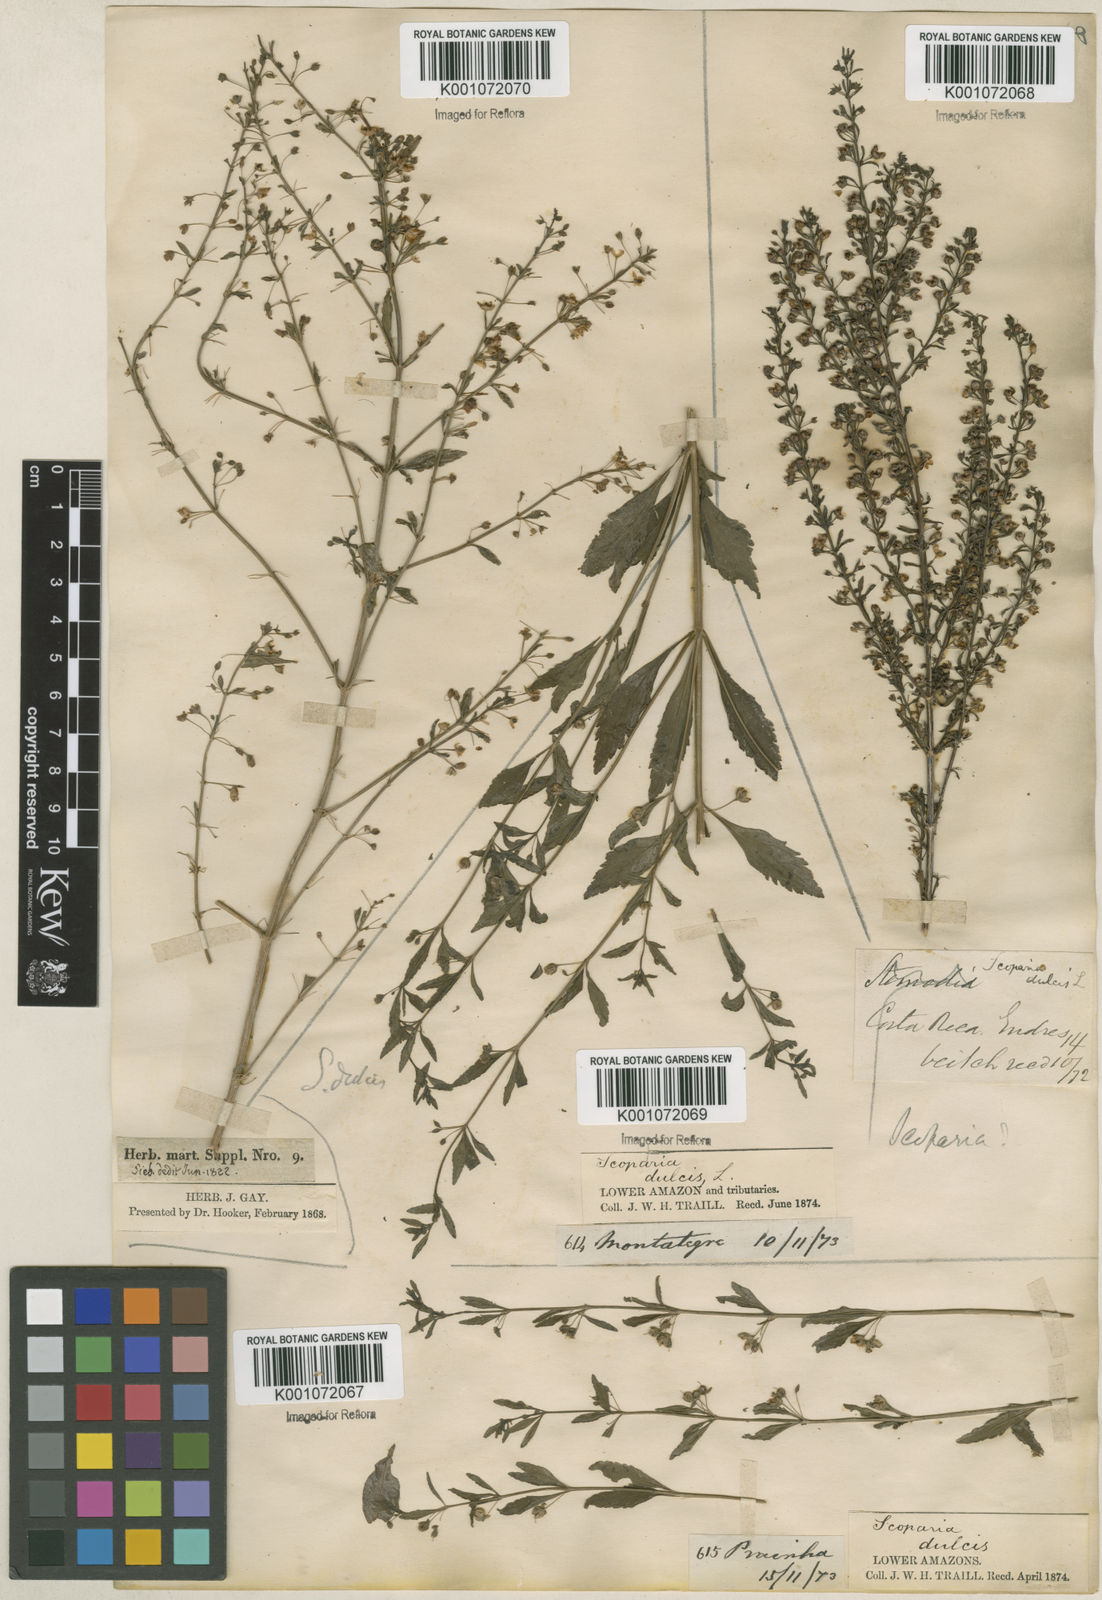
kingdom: Plantae
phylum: Tracheophyta
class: Magnoliopsida
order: Lamiales
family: Plantaginaceae
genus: Scoparia
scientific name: Scoparia dulcis
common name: Scoparia-weed
